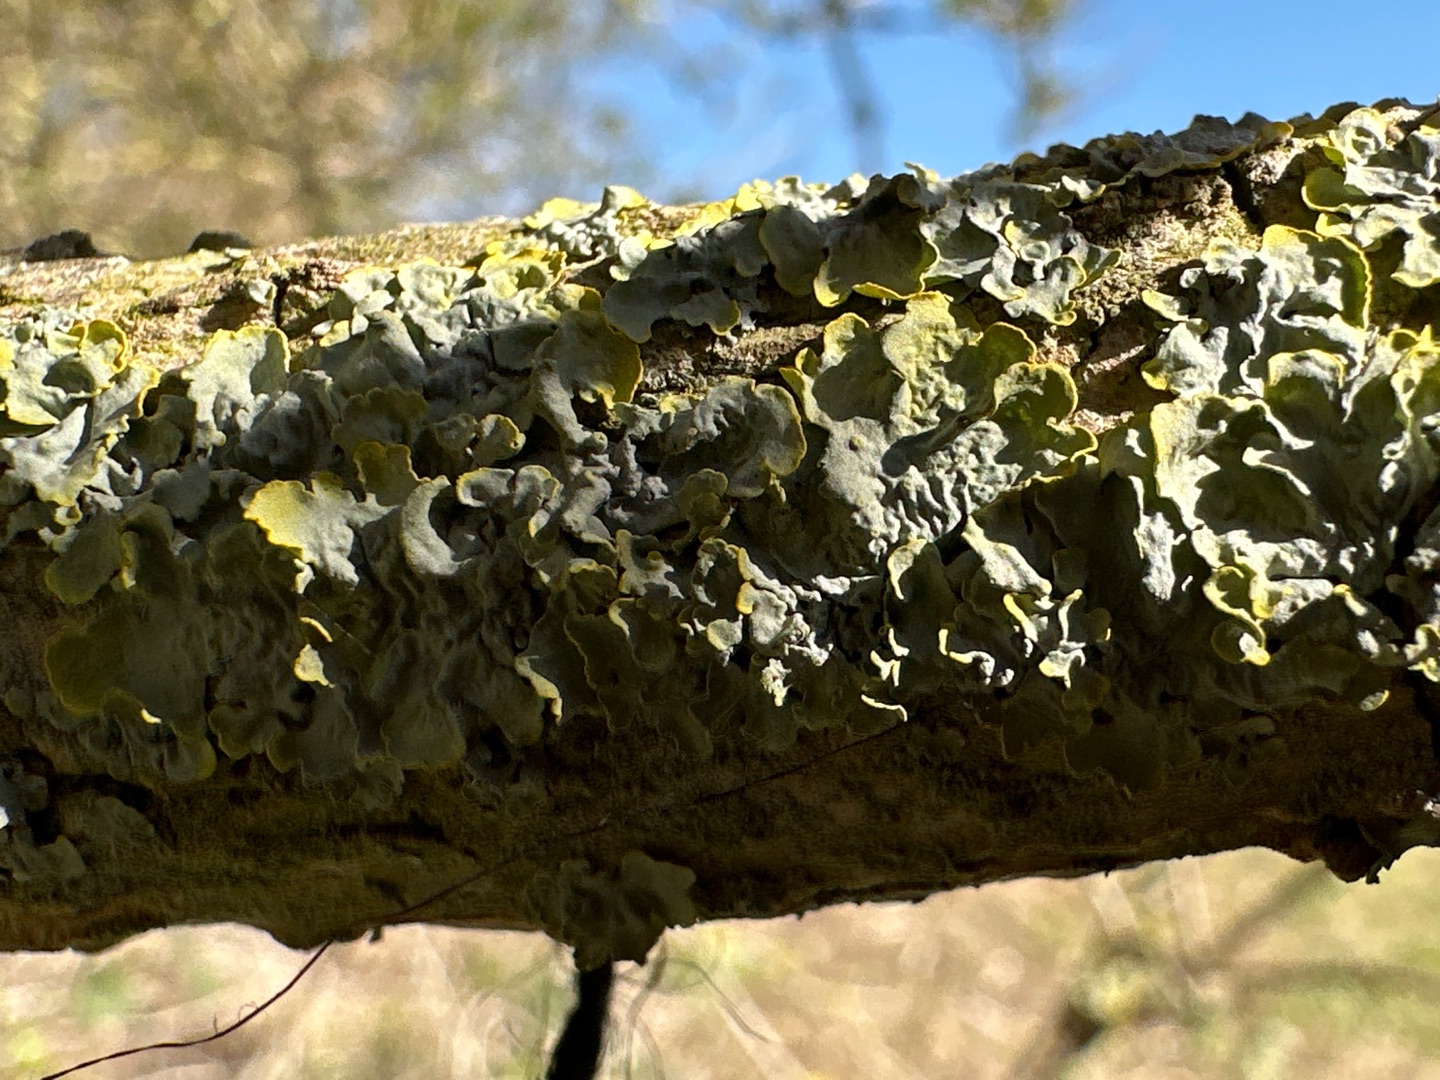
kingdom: Fungi
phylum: Ascomycota
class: Lecanoromycetes
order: Teloschistales
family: Teloschistaceae
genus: Xanthoria
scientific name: Xanthoria parietina
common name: Almindelig væggelav
